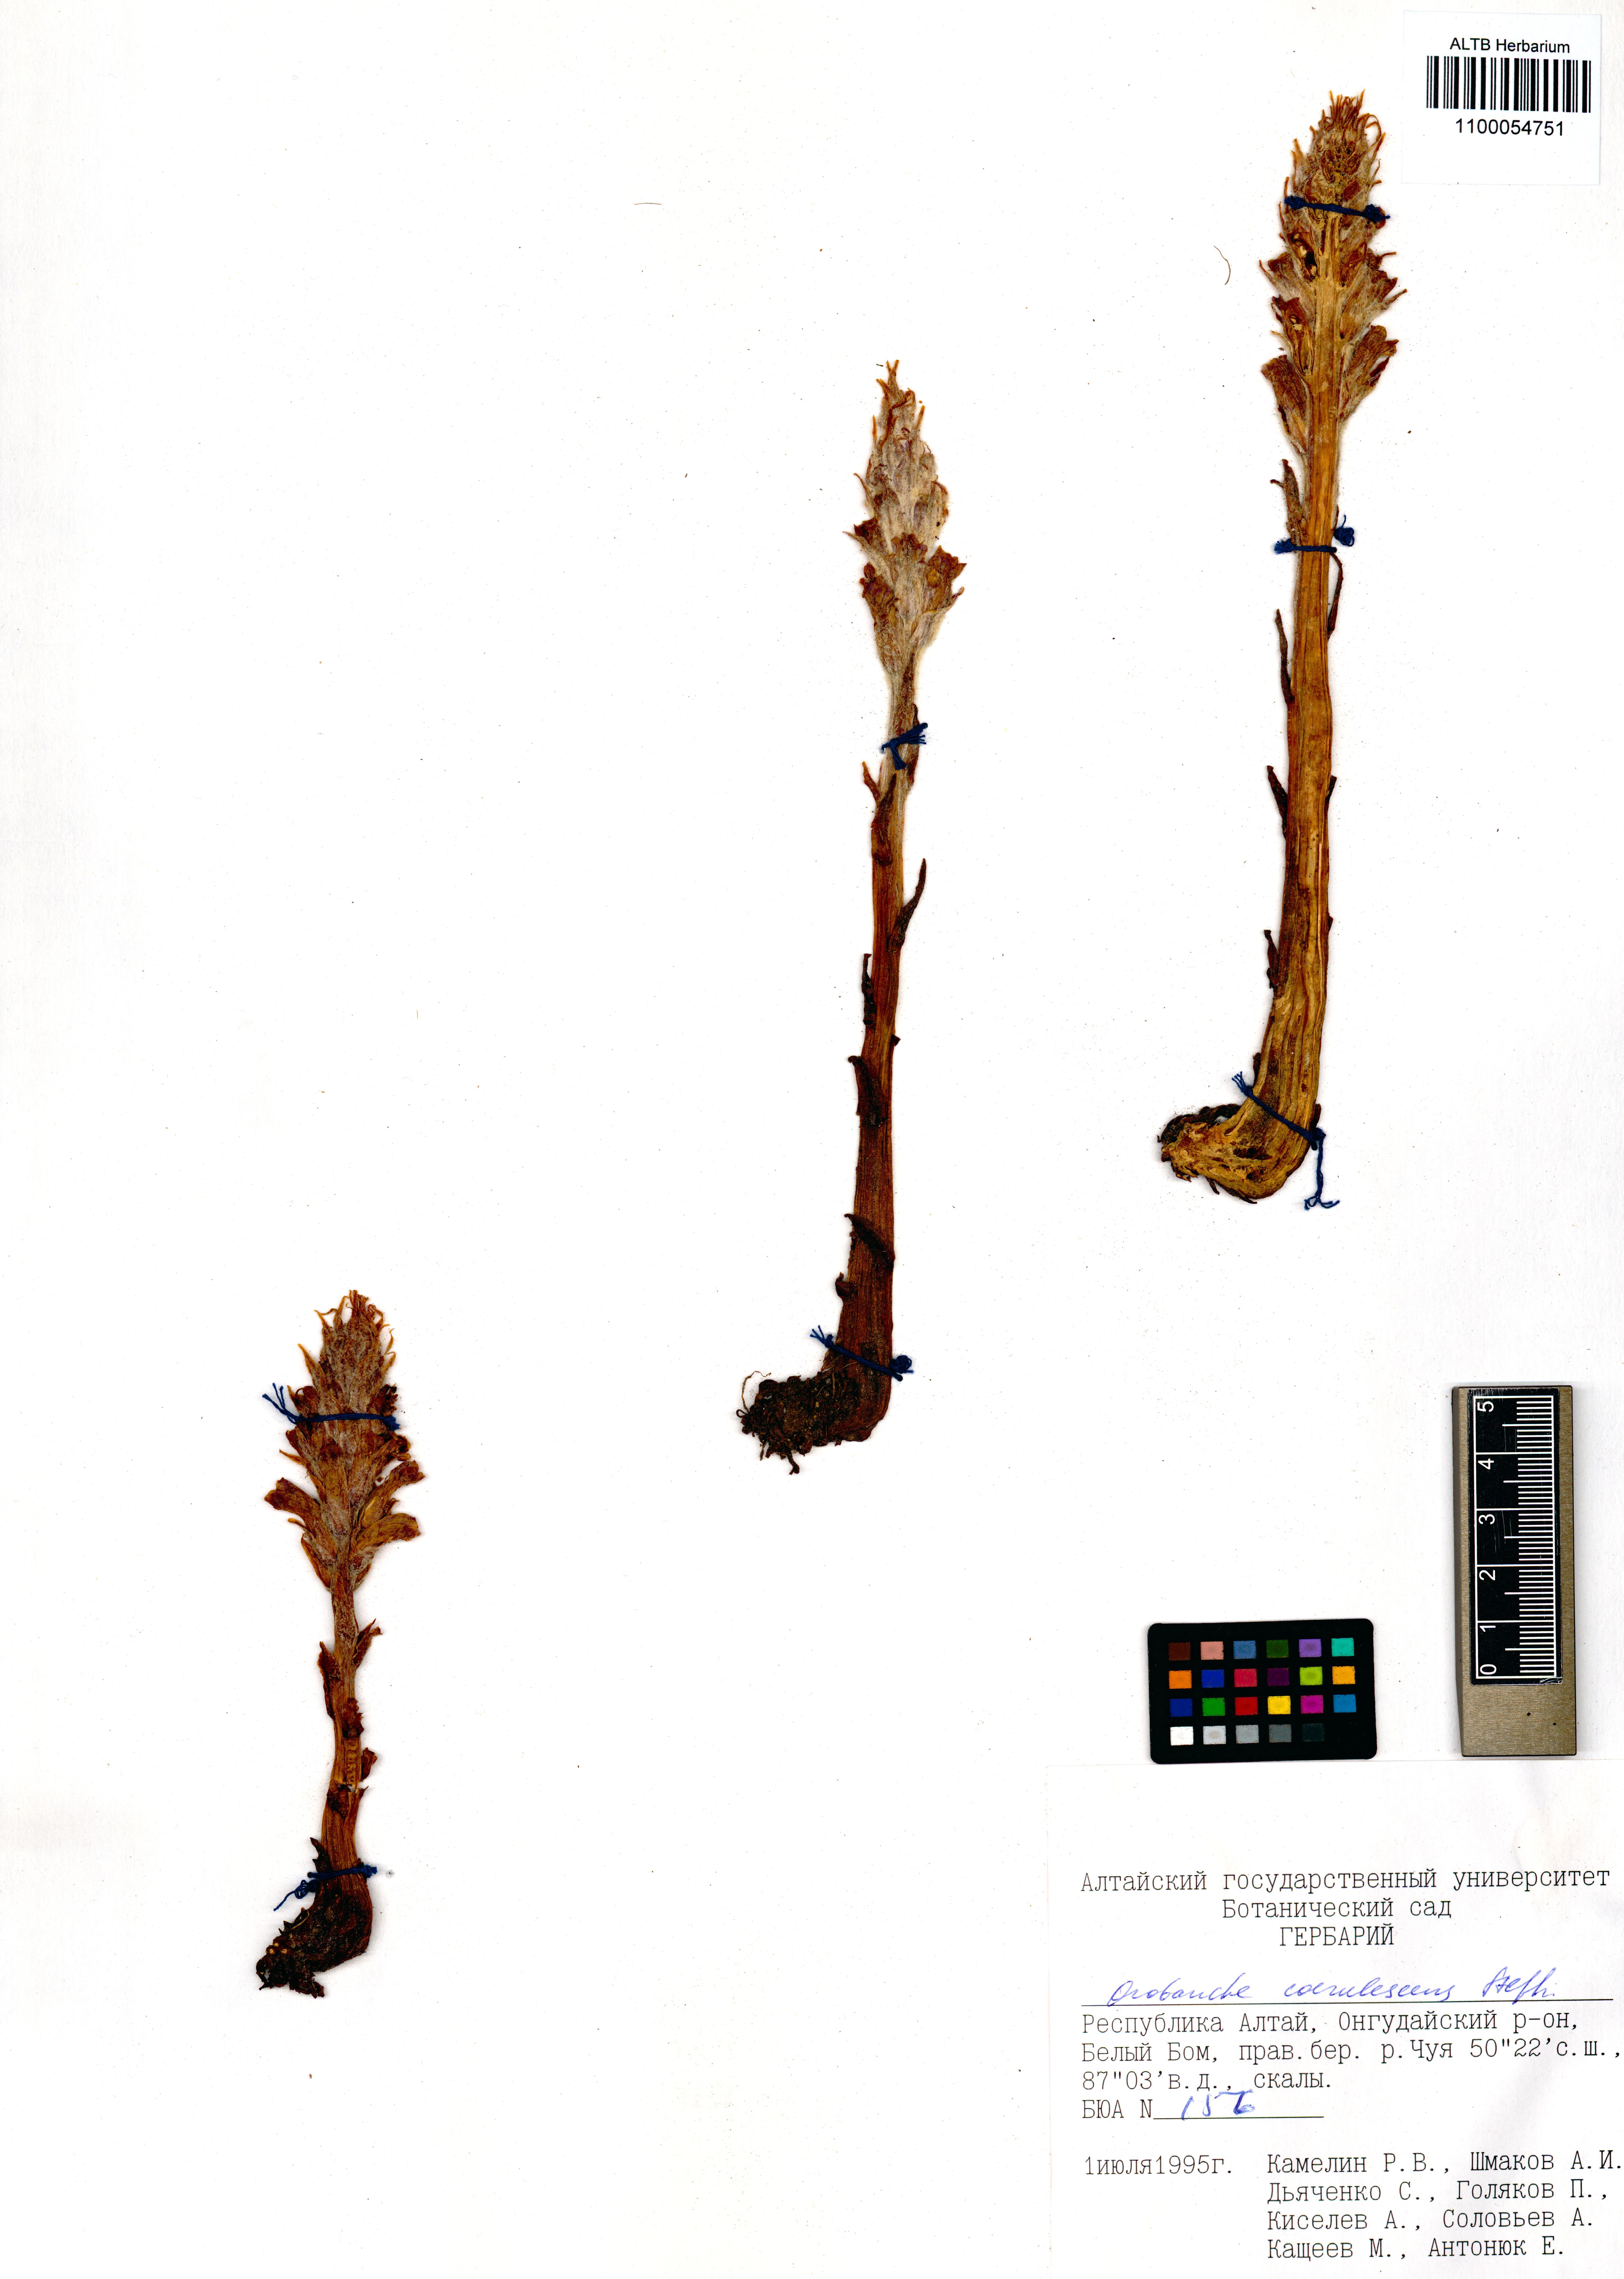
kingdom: Plantae
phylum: Tracheophyta
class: Magnoliopsida
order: Lamiales
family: Orobanchaceae
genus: Orobanche
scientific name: Orobanche coerulescens
